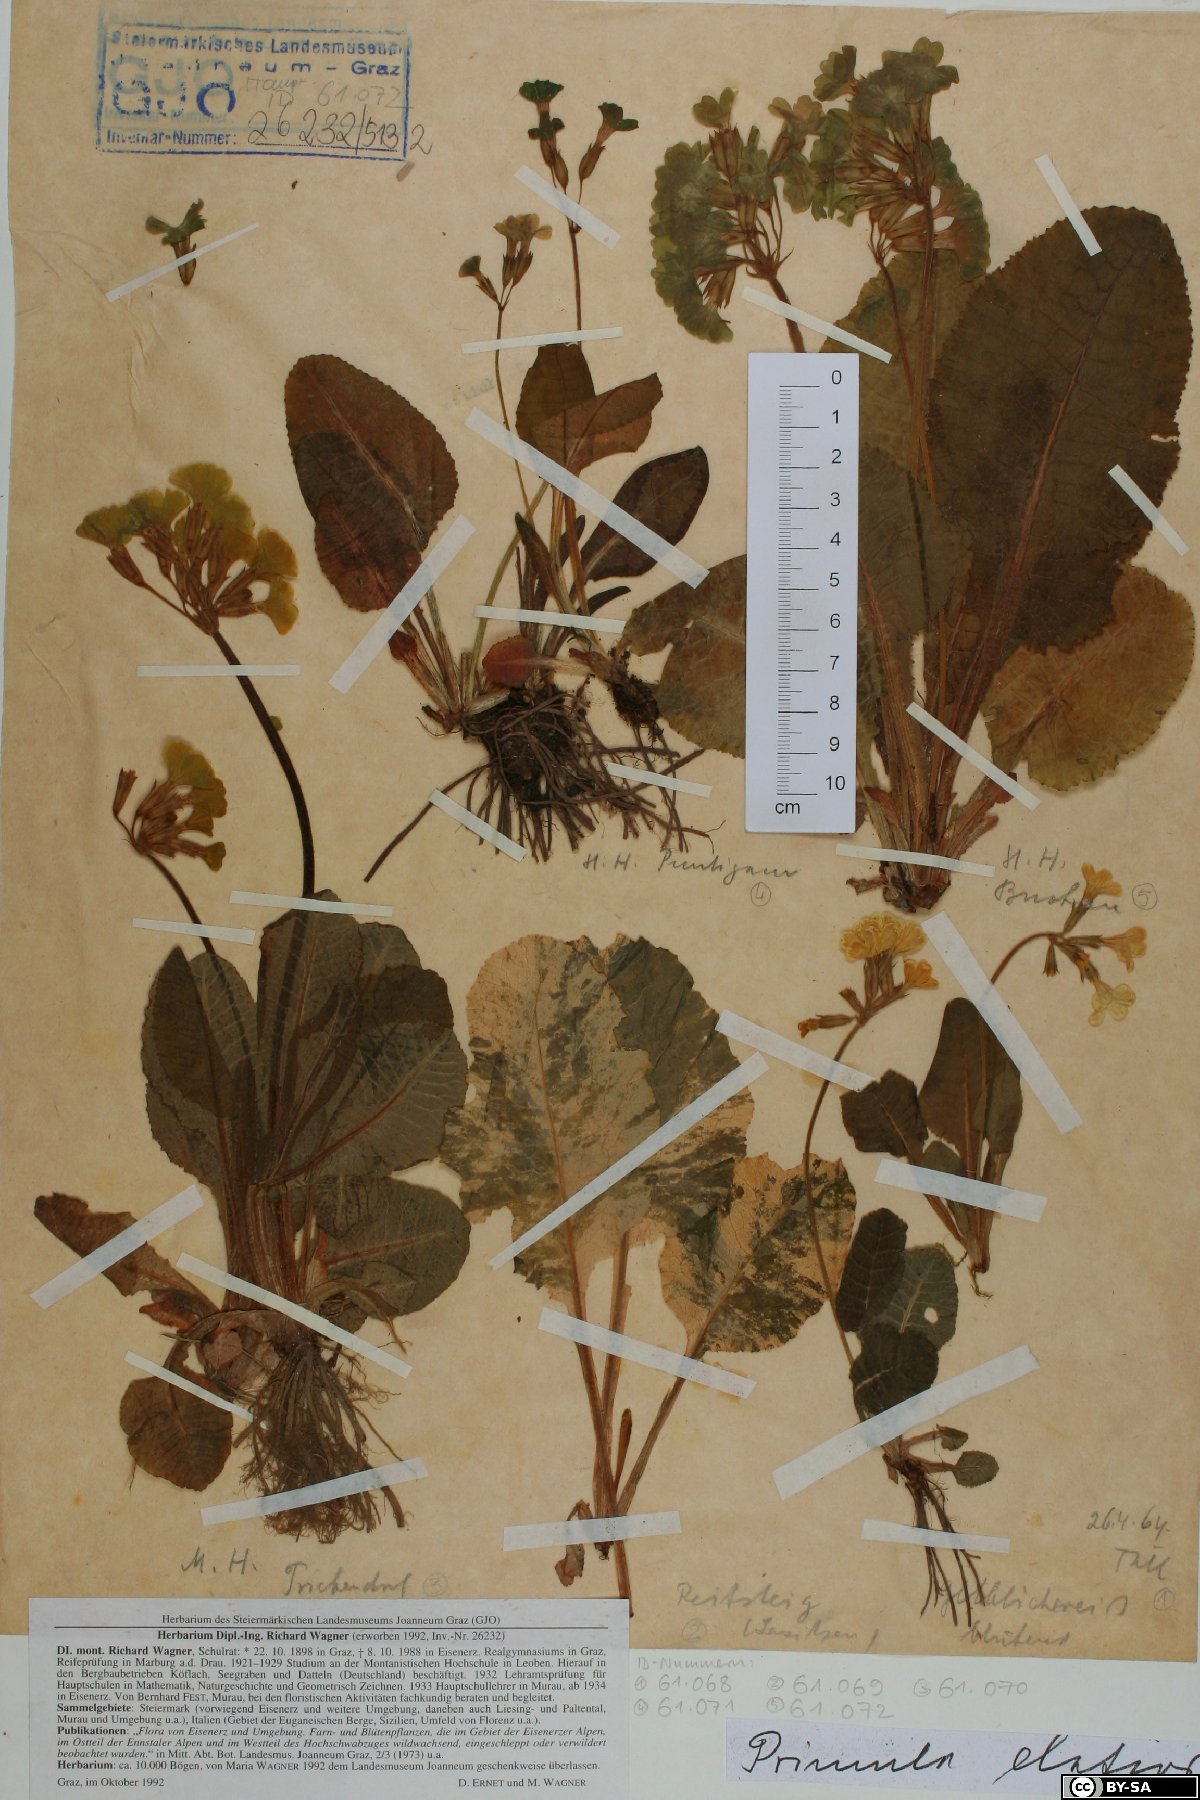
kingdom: Plantae
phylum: Tracheophyta
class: Magnoliopsida
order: Ericales
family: Primulaceae
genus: Primula
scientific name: Primula elatior
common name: Oxlip
